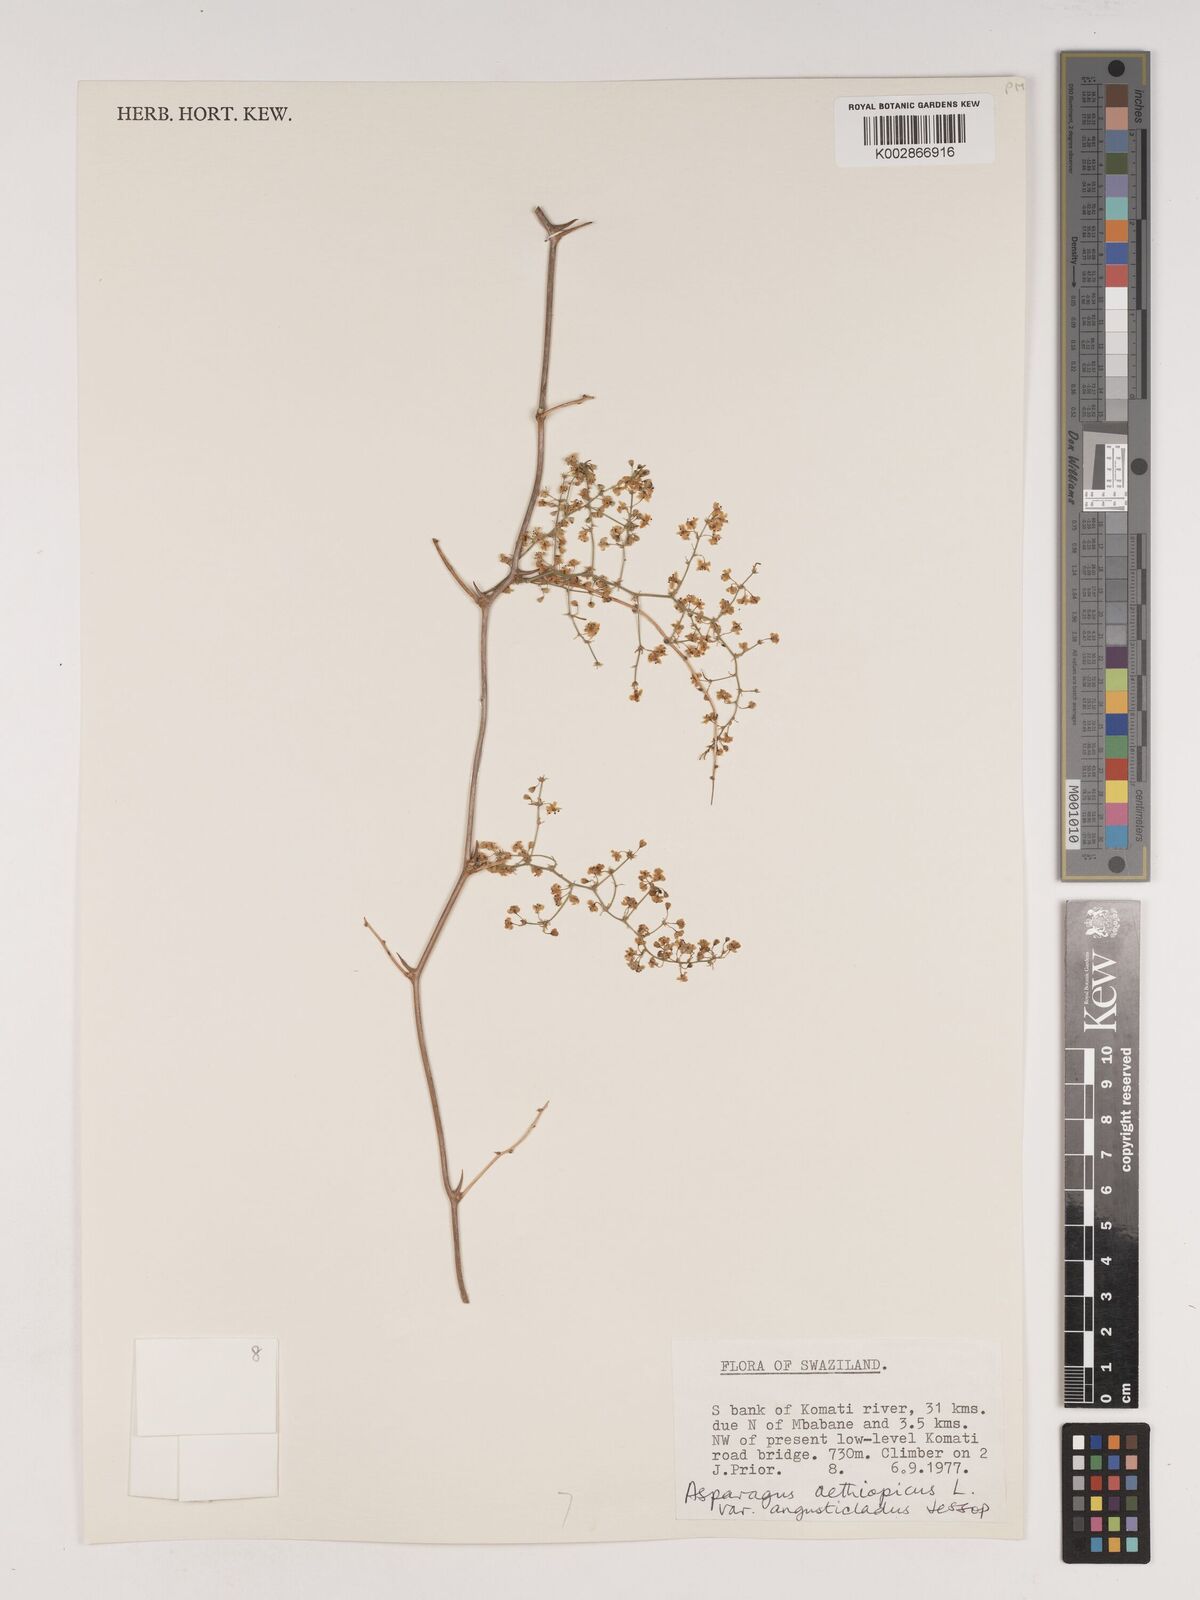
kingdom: Plantae
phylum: Tracheophyta
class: Liliopsida
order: Asparagales
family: Asparagaceae
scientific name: Asparagaceae
